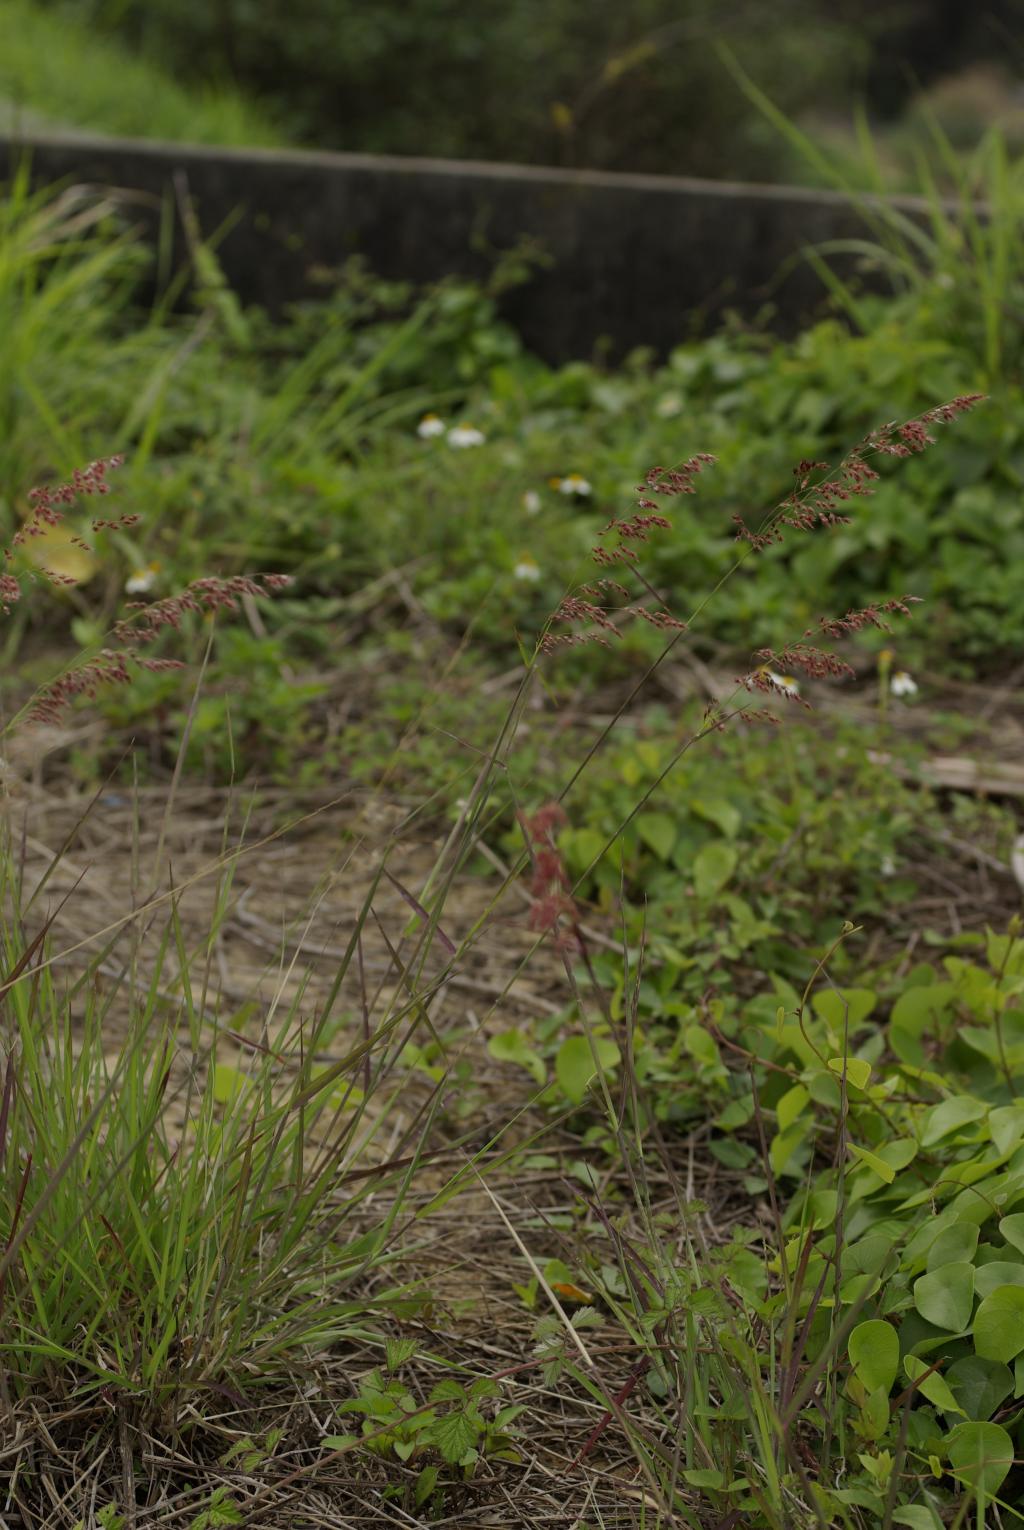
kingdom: Plantae
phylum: Tracheophyta
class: Liliopsida
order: Poales
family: Poaceae
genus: Melinis
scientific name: Melinis repens
